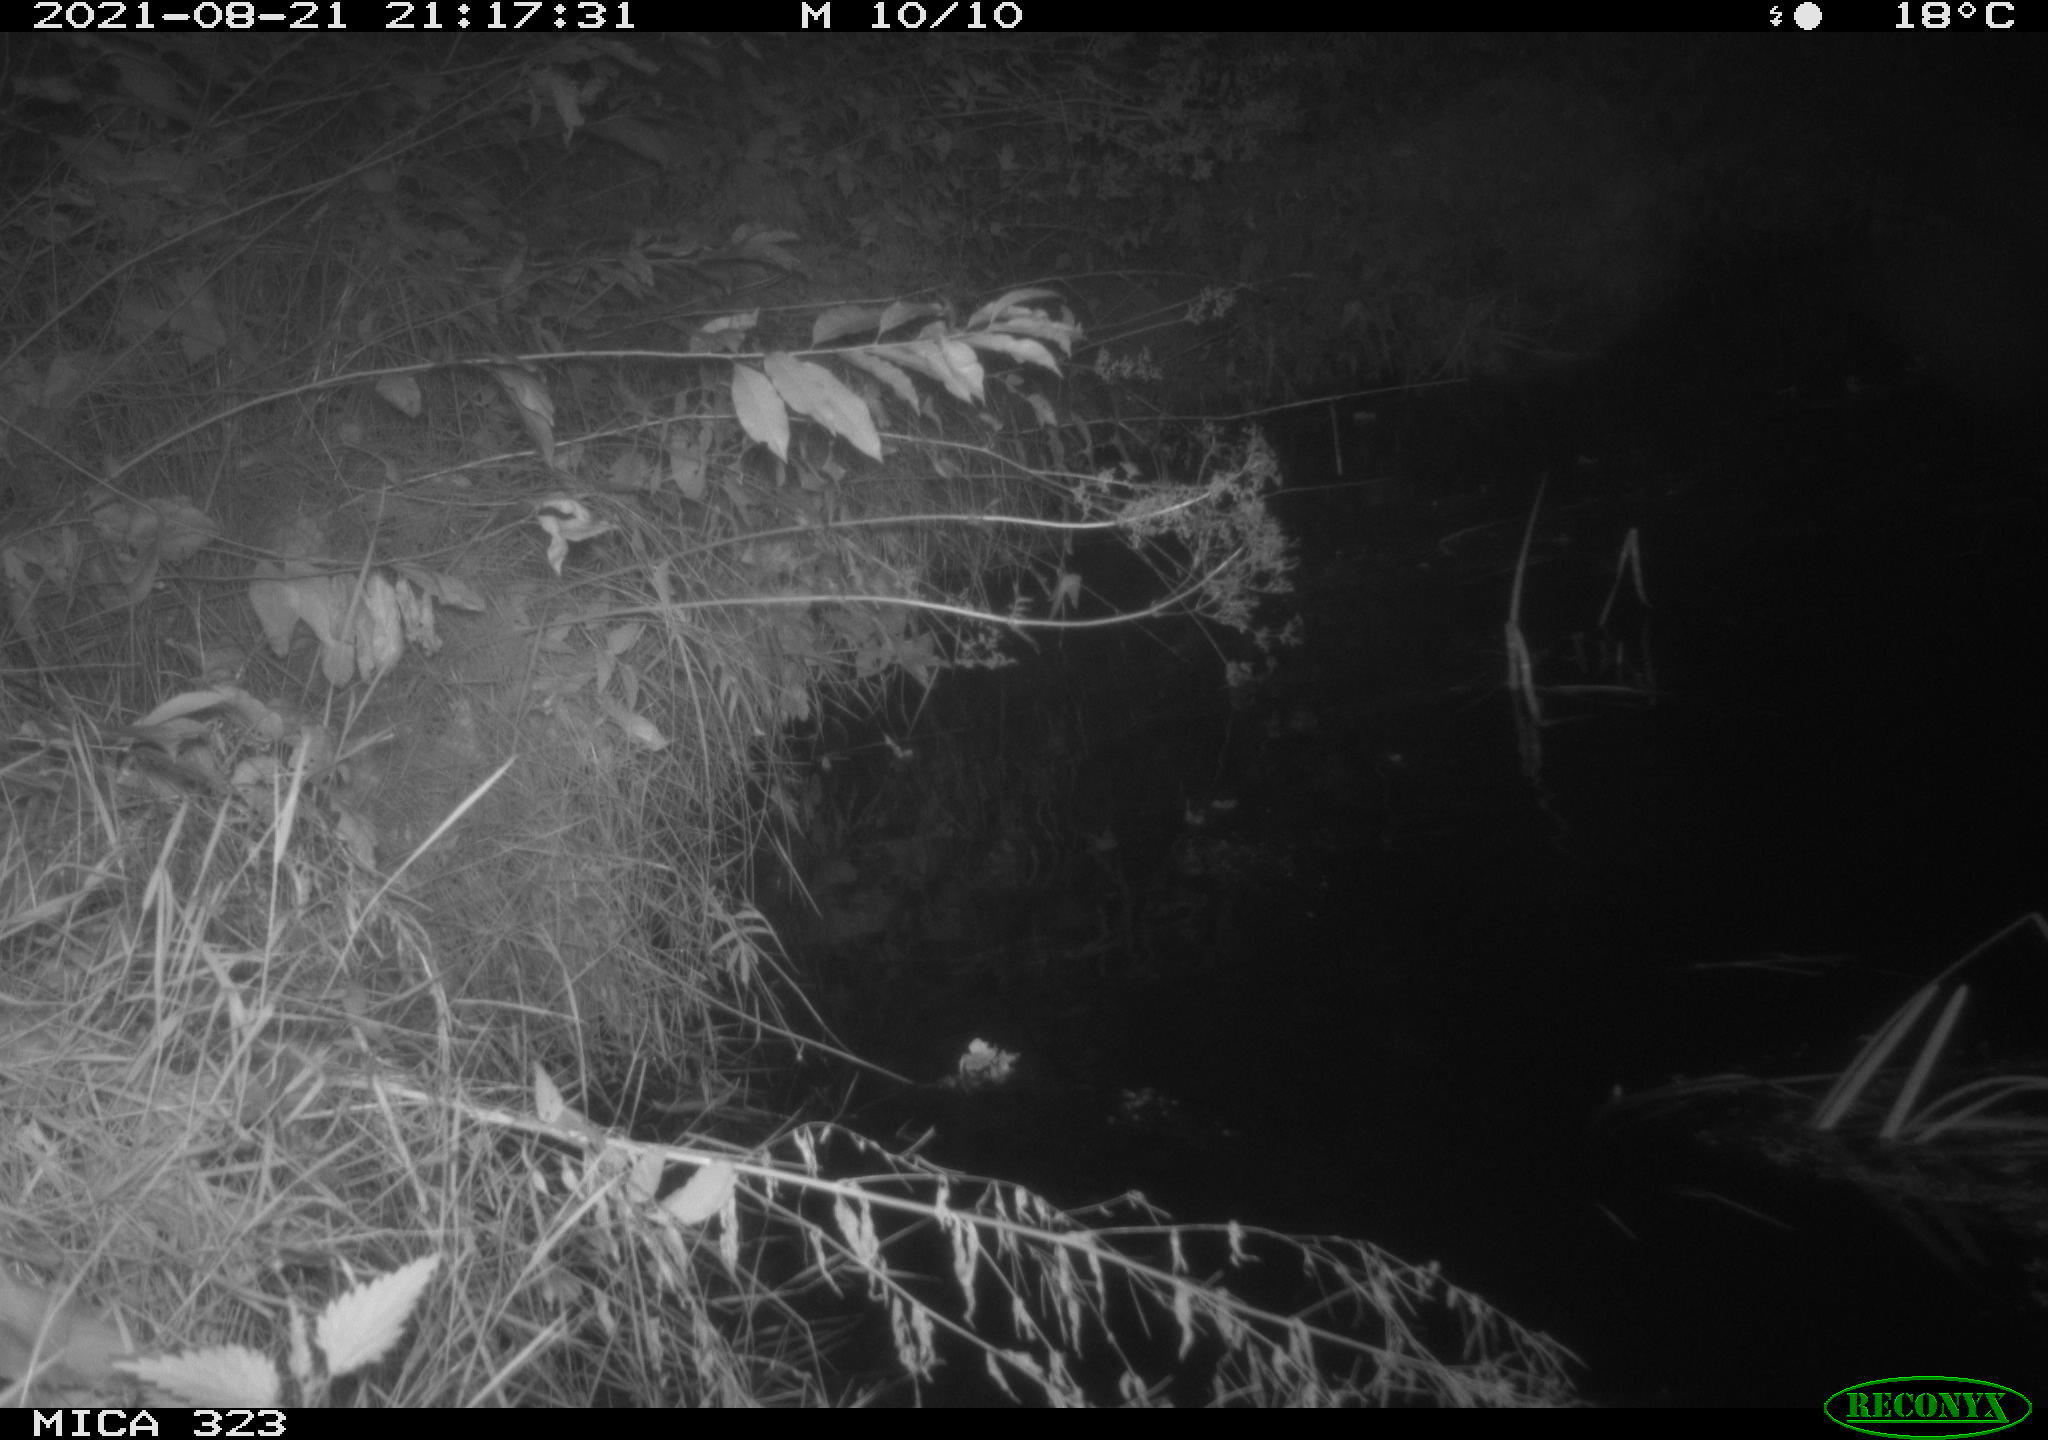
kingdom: Animalia
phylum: Chordata
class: Aves
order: Anseriformes
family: Anatidae
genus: Anas
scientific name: Anas
